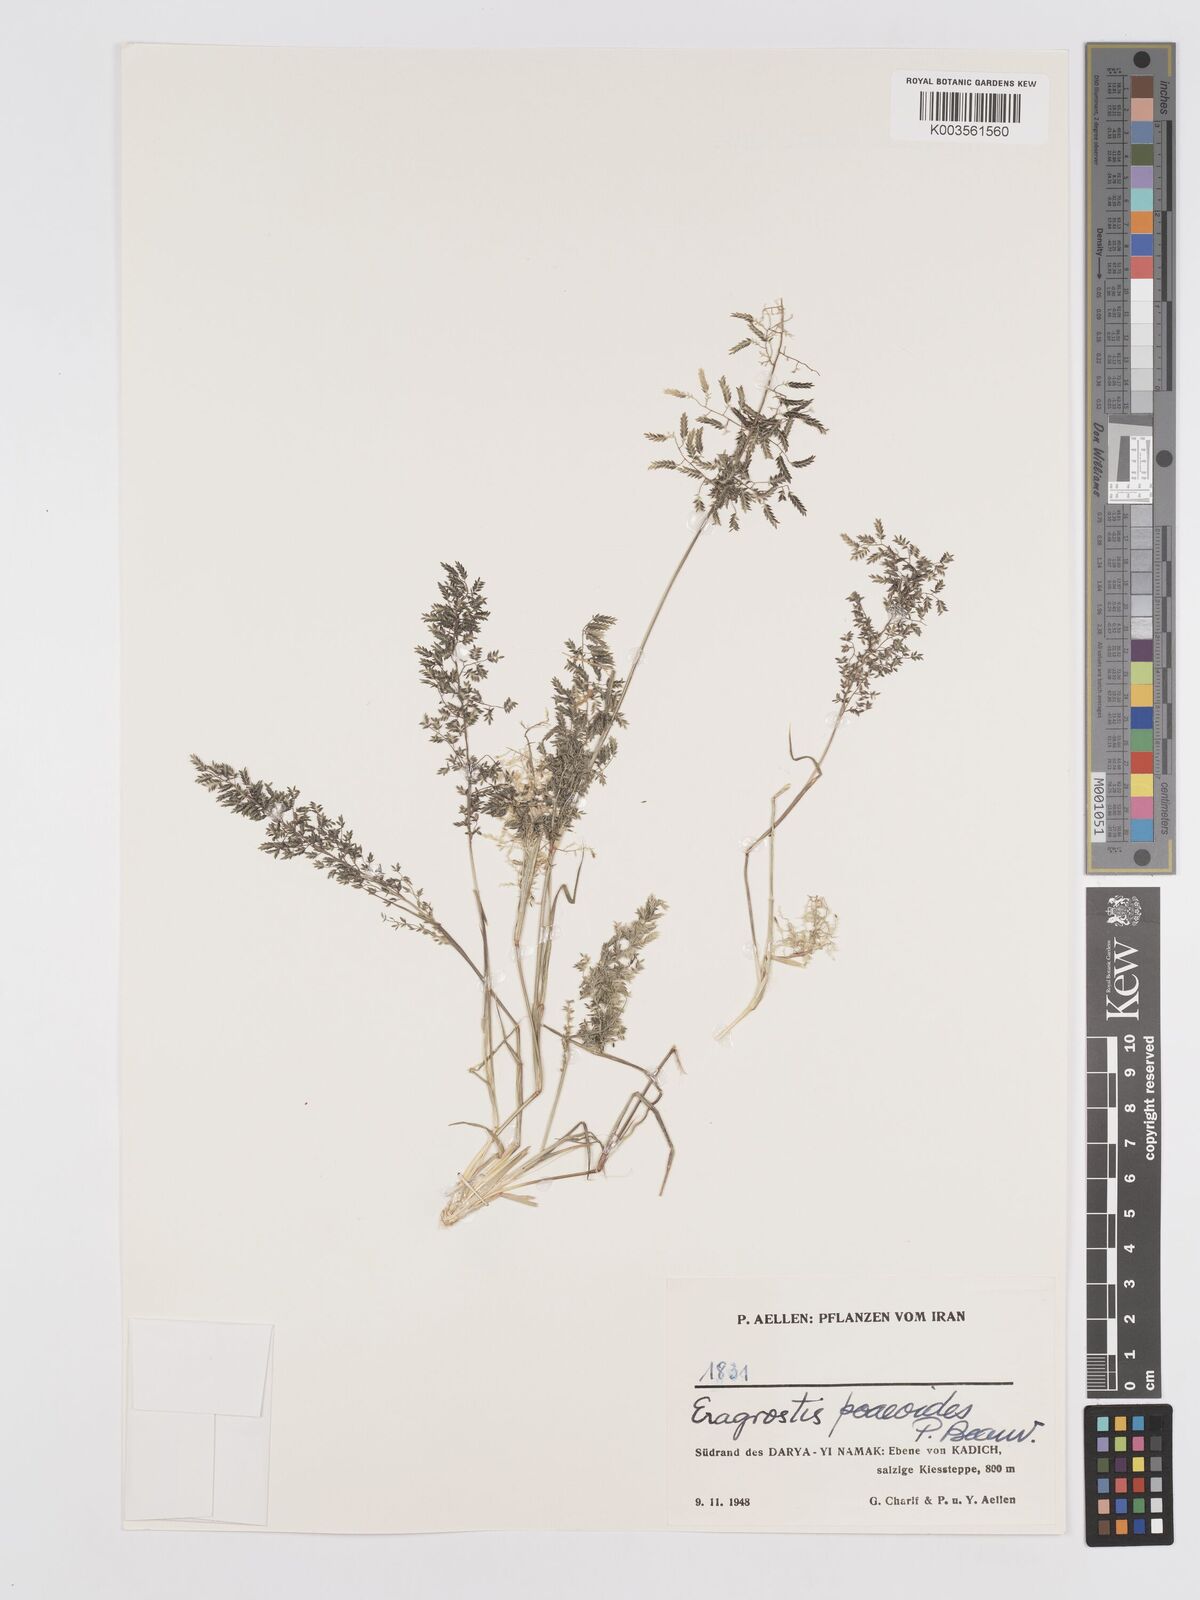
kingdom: Plantae
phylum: Tracheophyta
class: Liliopsida
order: Poales
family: Poaceae
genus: Eragrostis
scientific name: Eragrostis minor
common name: Small love-grass
